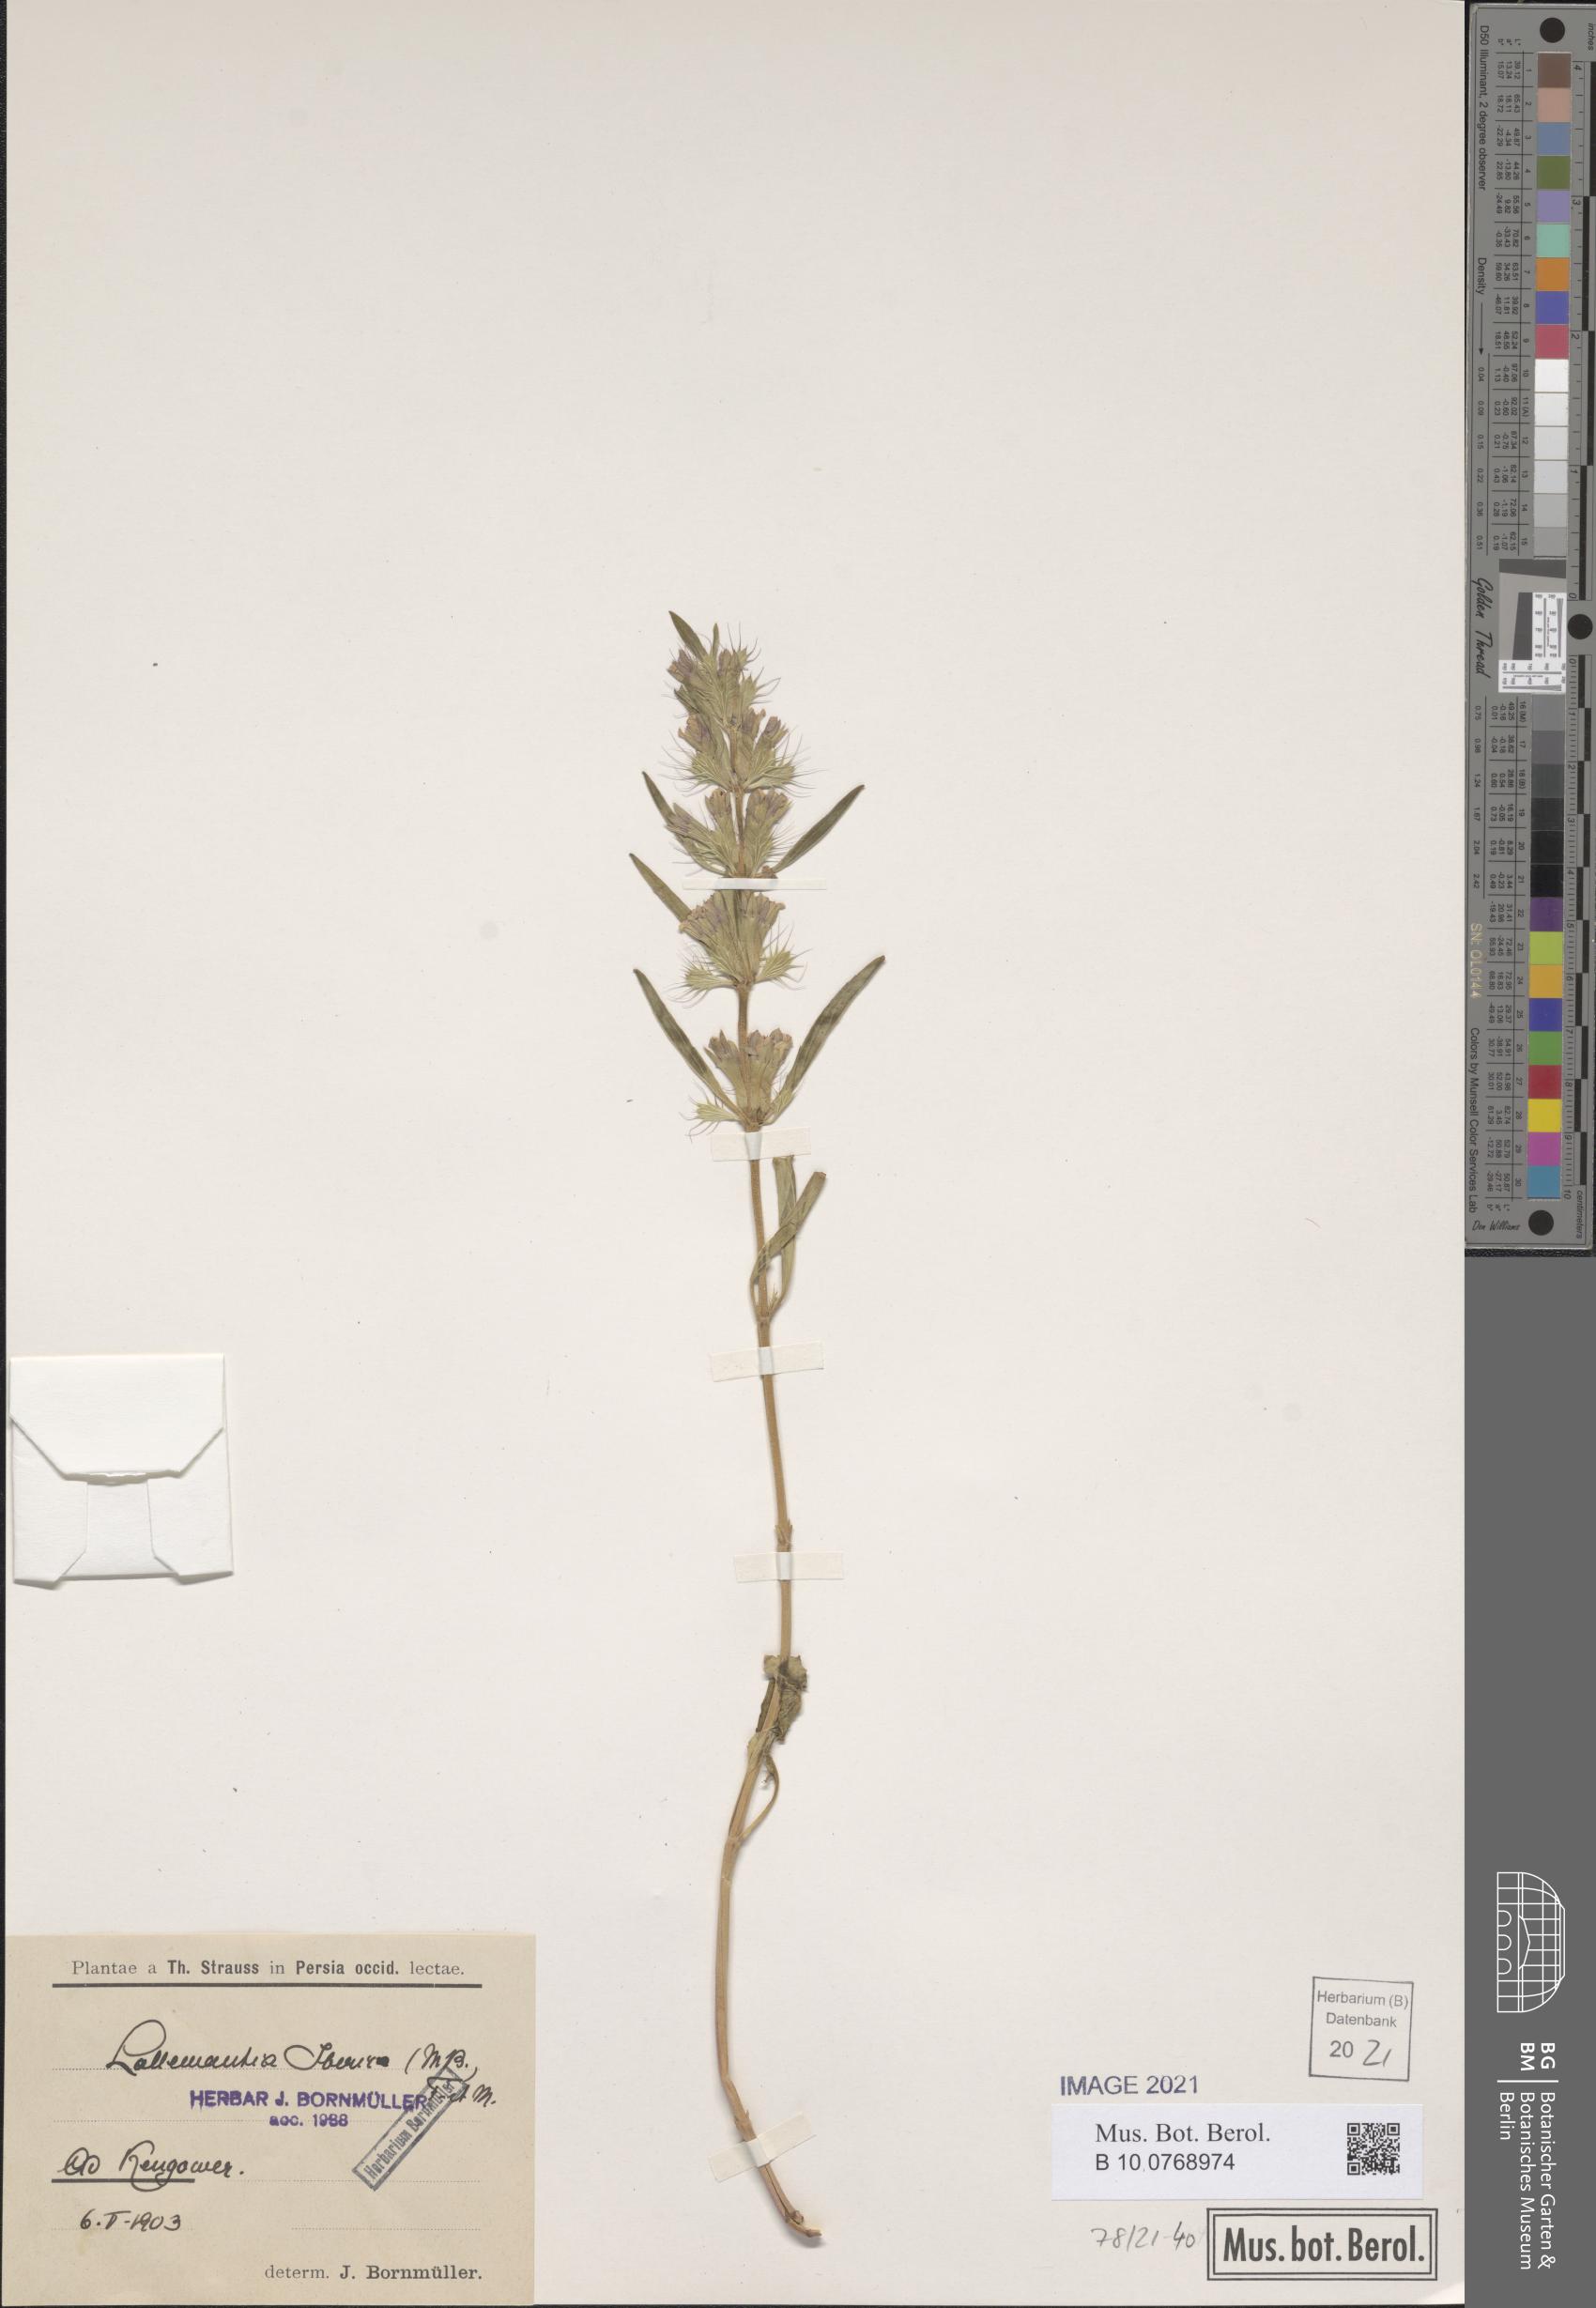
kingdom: Plantae
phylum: Tracheophyta
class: Magnoliopsida
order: Lamiales
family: Lamiaceae
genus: Lallemantia
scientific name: Lallemantia iberica
